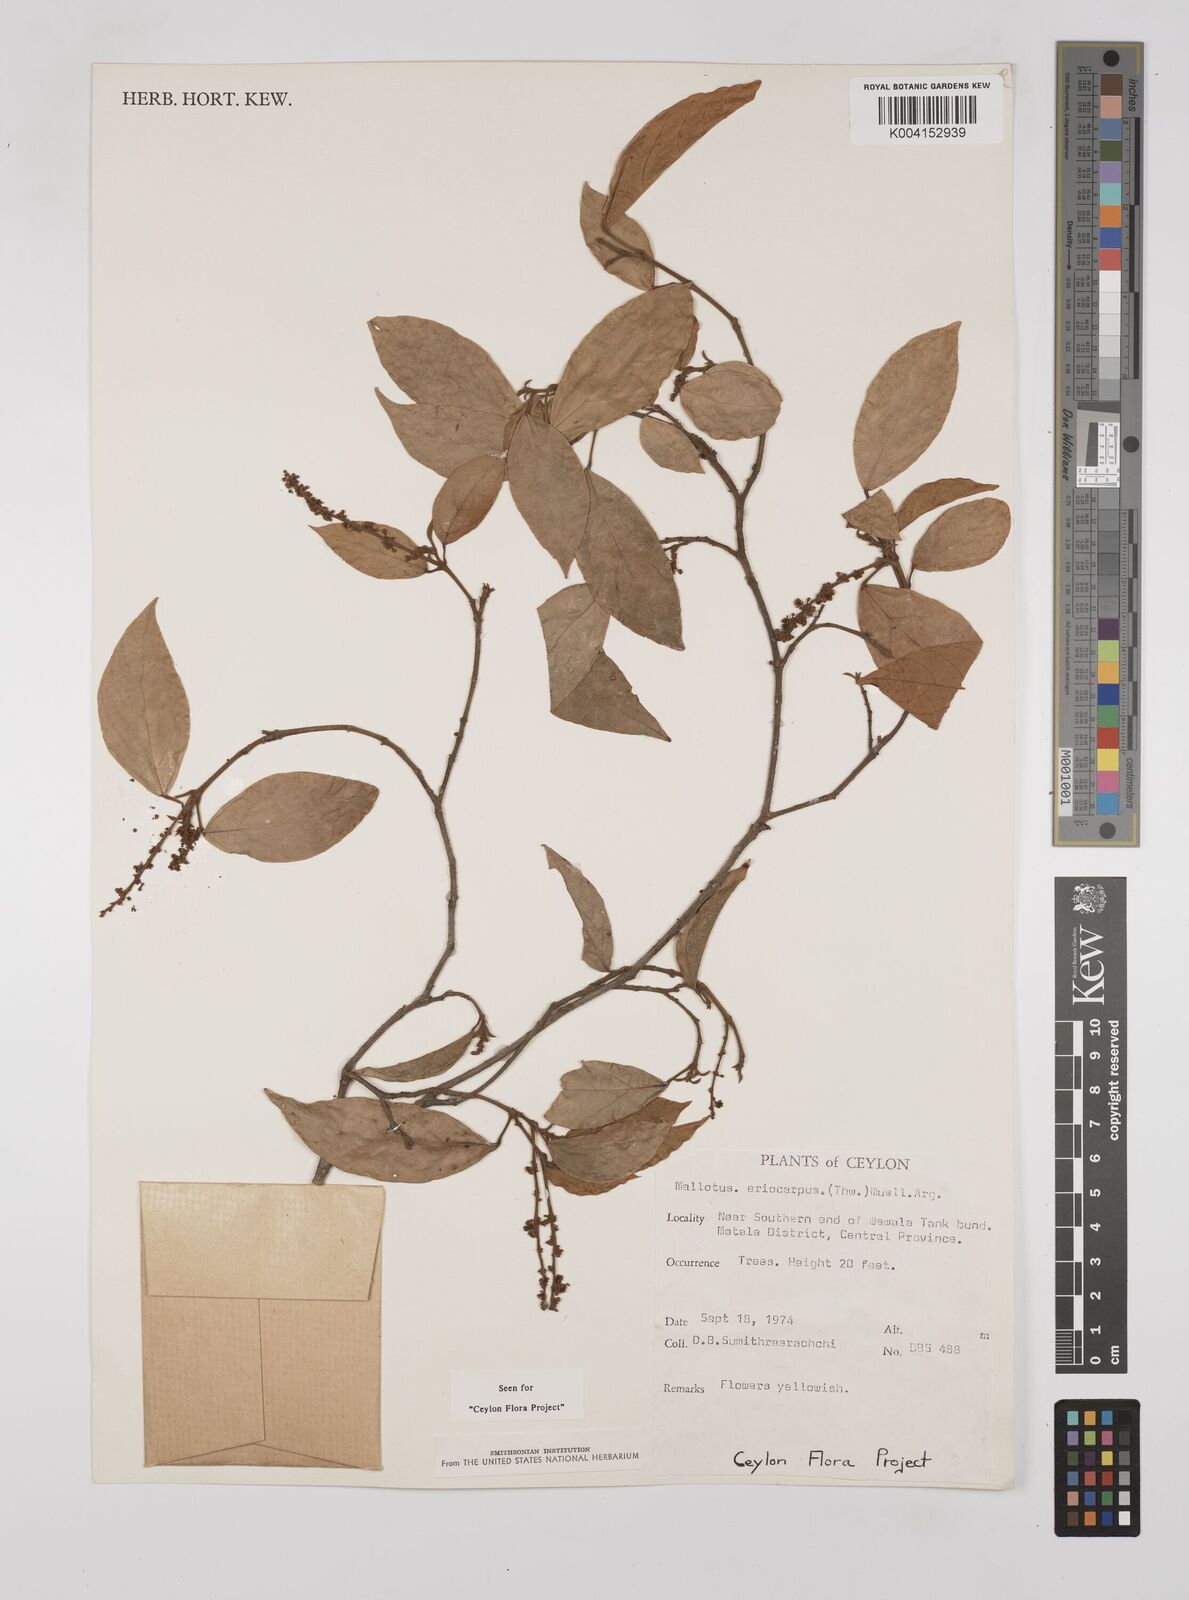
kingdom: Plantae
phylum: Tracheophyta
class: Magnoliopsida
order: Malpighiales
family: Euphorbiaceae
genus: Mallotus
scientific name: Mallotus eriocarpus
